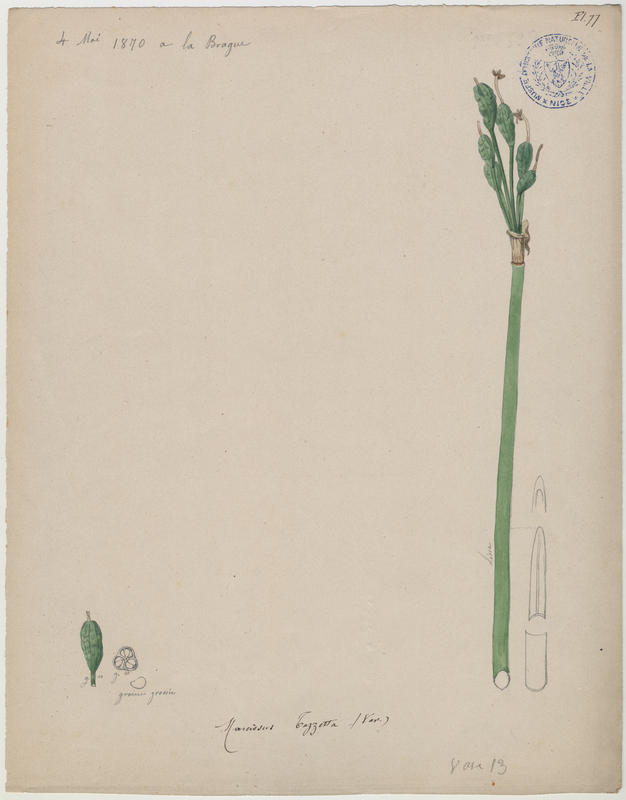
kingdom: Plantae
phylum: Tracheophyta
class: Liliopsida
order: Asparagales
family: Amaryllidaceae
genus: Narcissus
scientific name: Narcissus tazetta
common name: Bunch-flowered daffodil
